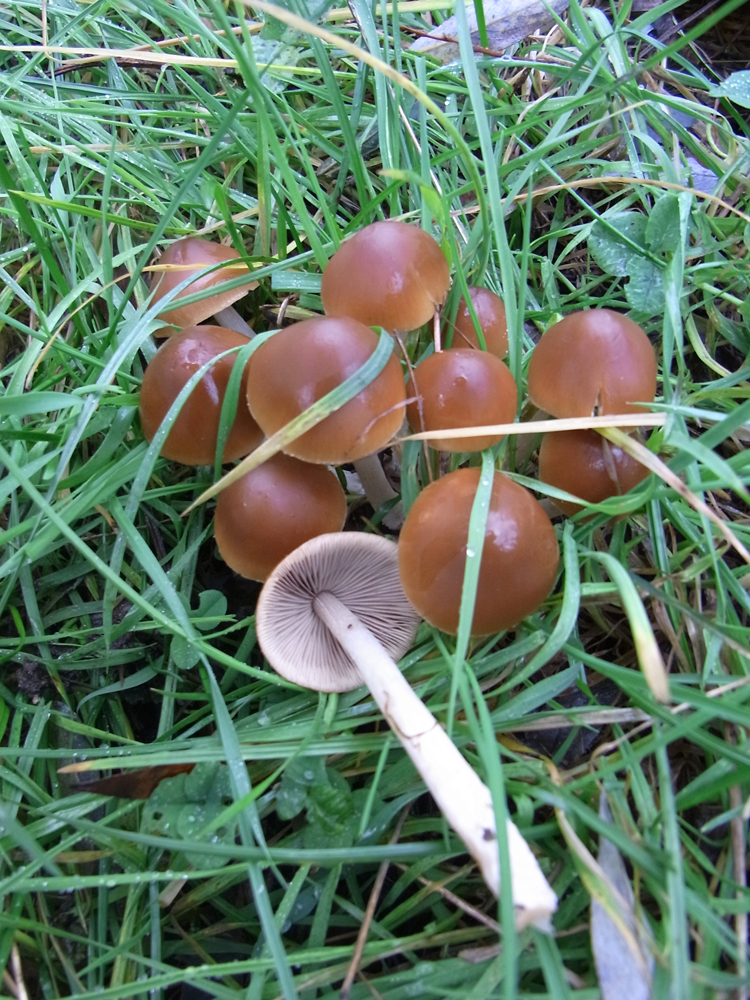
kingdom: Fungi
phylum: Basidiomycota
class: Agaricomycetes
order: Agaricales
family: Psathyrellaceae
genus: Britzelmayria
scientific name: Britzelmayria multipedata
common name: Clustered brittlestem
